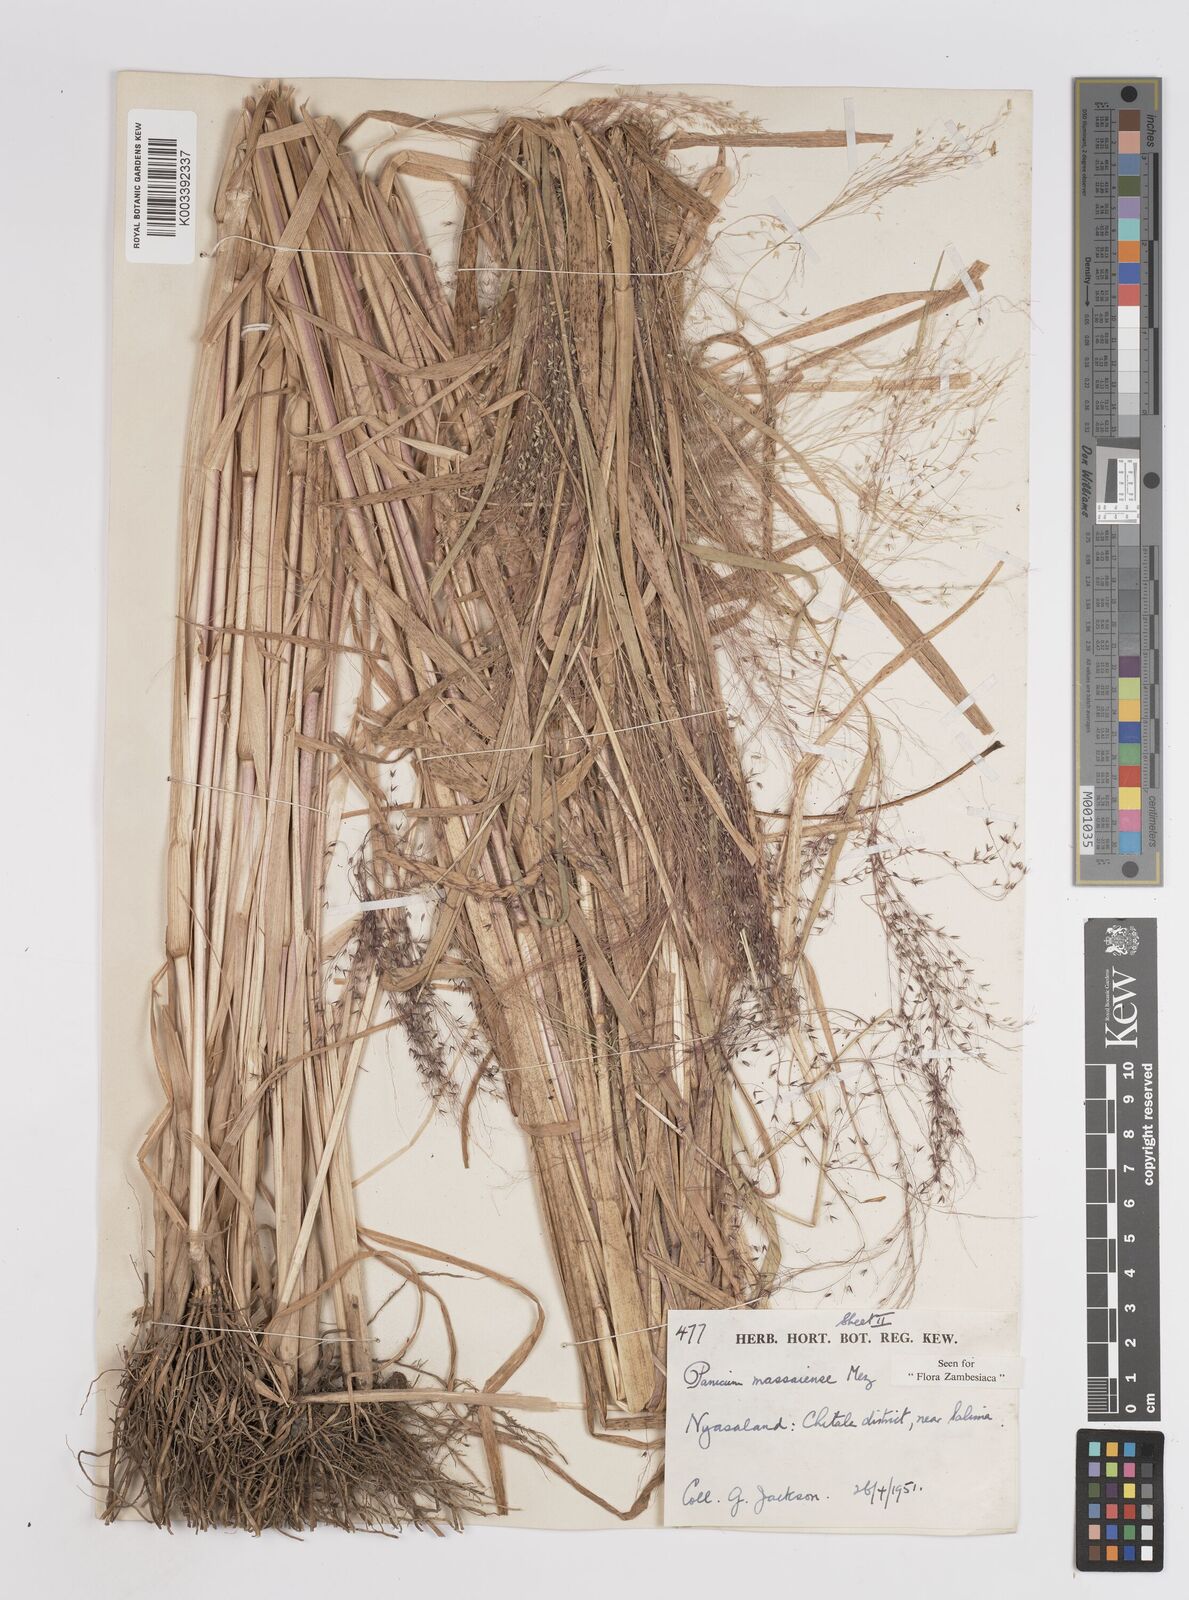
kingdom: Plantae
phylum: Tracheophyta
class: Liliopsida
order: Poales
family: Poaceae
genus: Panicum
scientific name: Panicum massaiense
